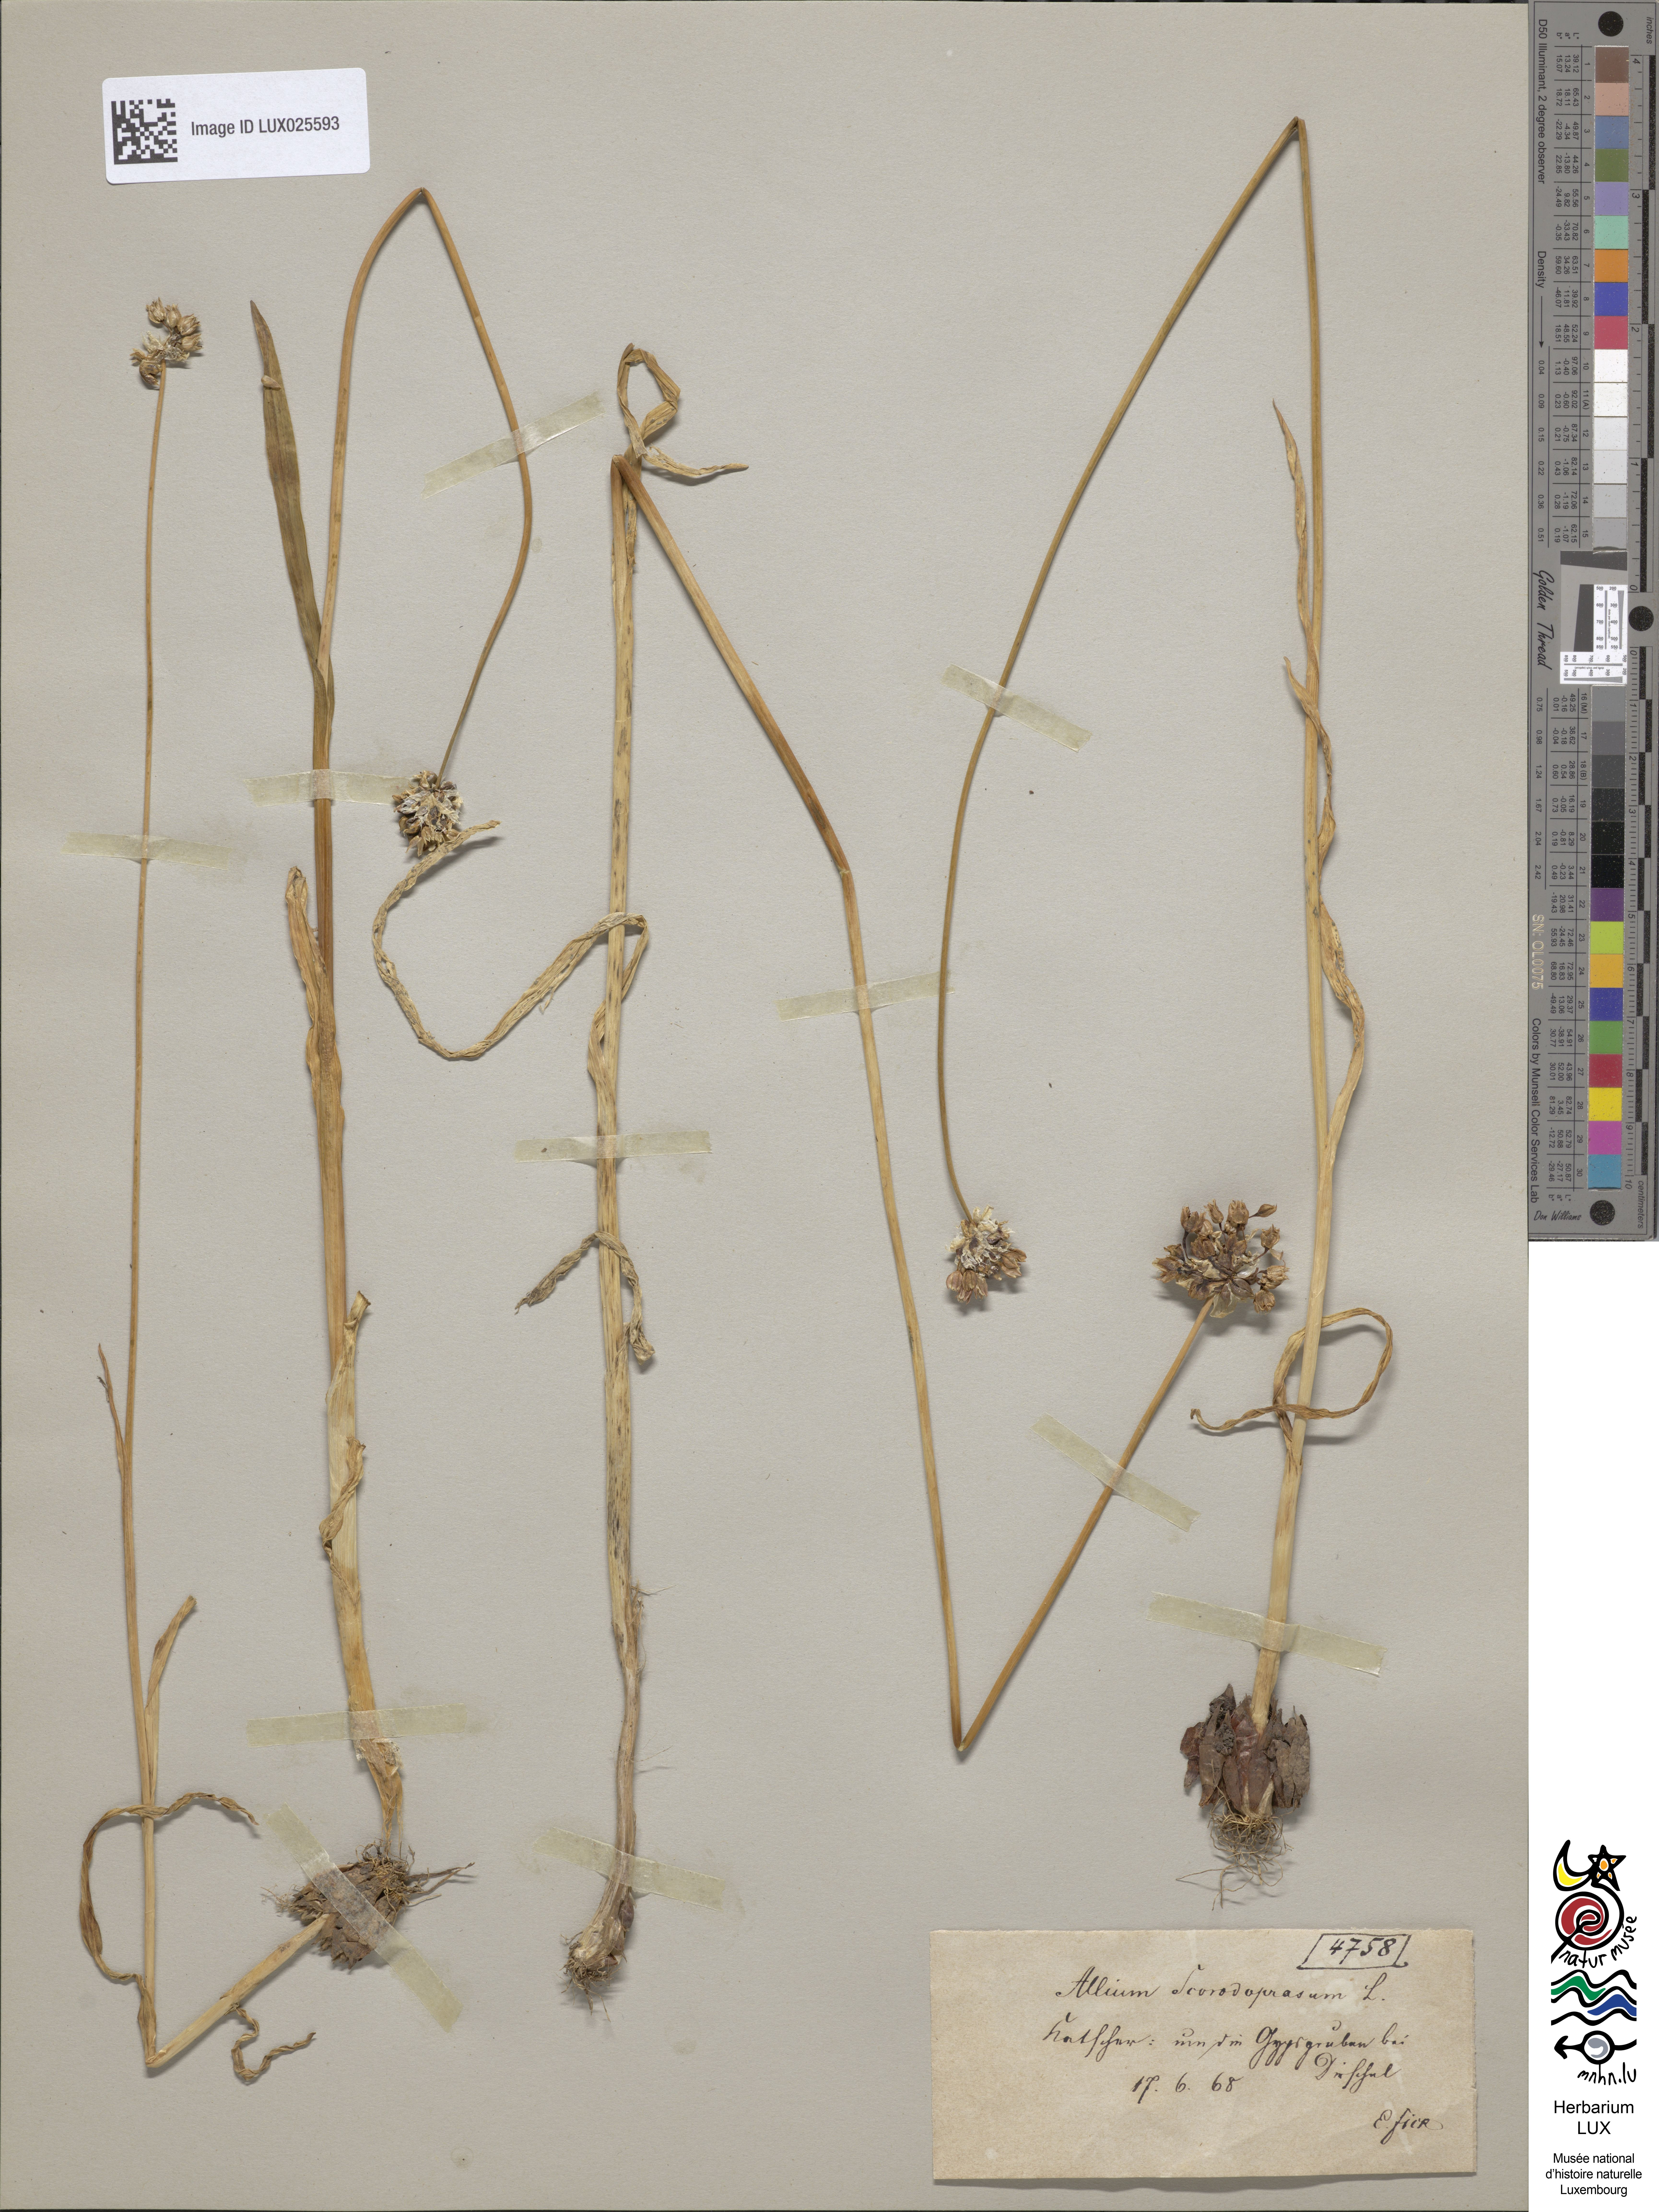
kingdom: Plantae
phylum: Tracheophyta
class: Liliopsida
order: Asparagales
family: Amaryllidaceae
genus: Allium
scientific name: Allium scorodoprasum
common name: Sand leek
